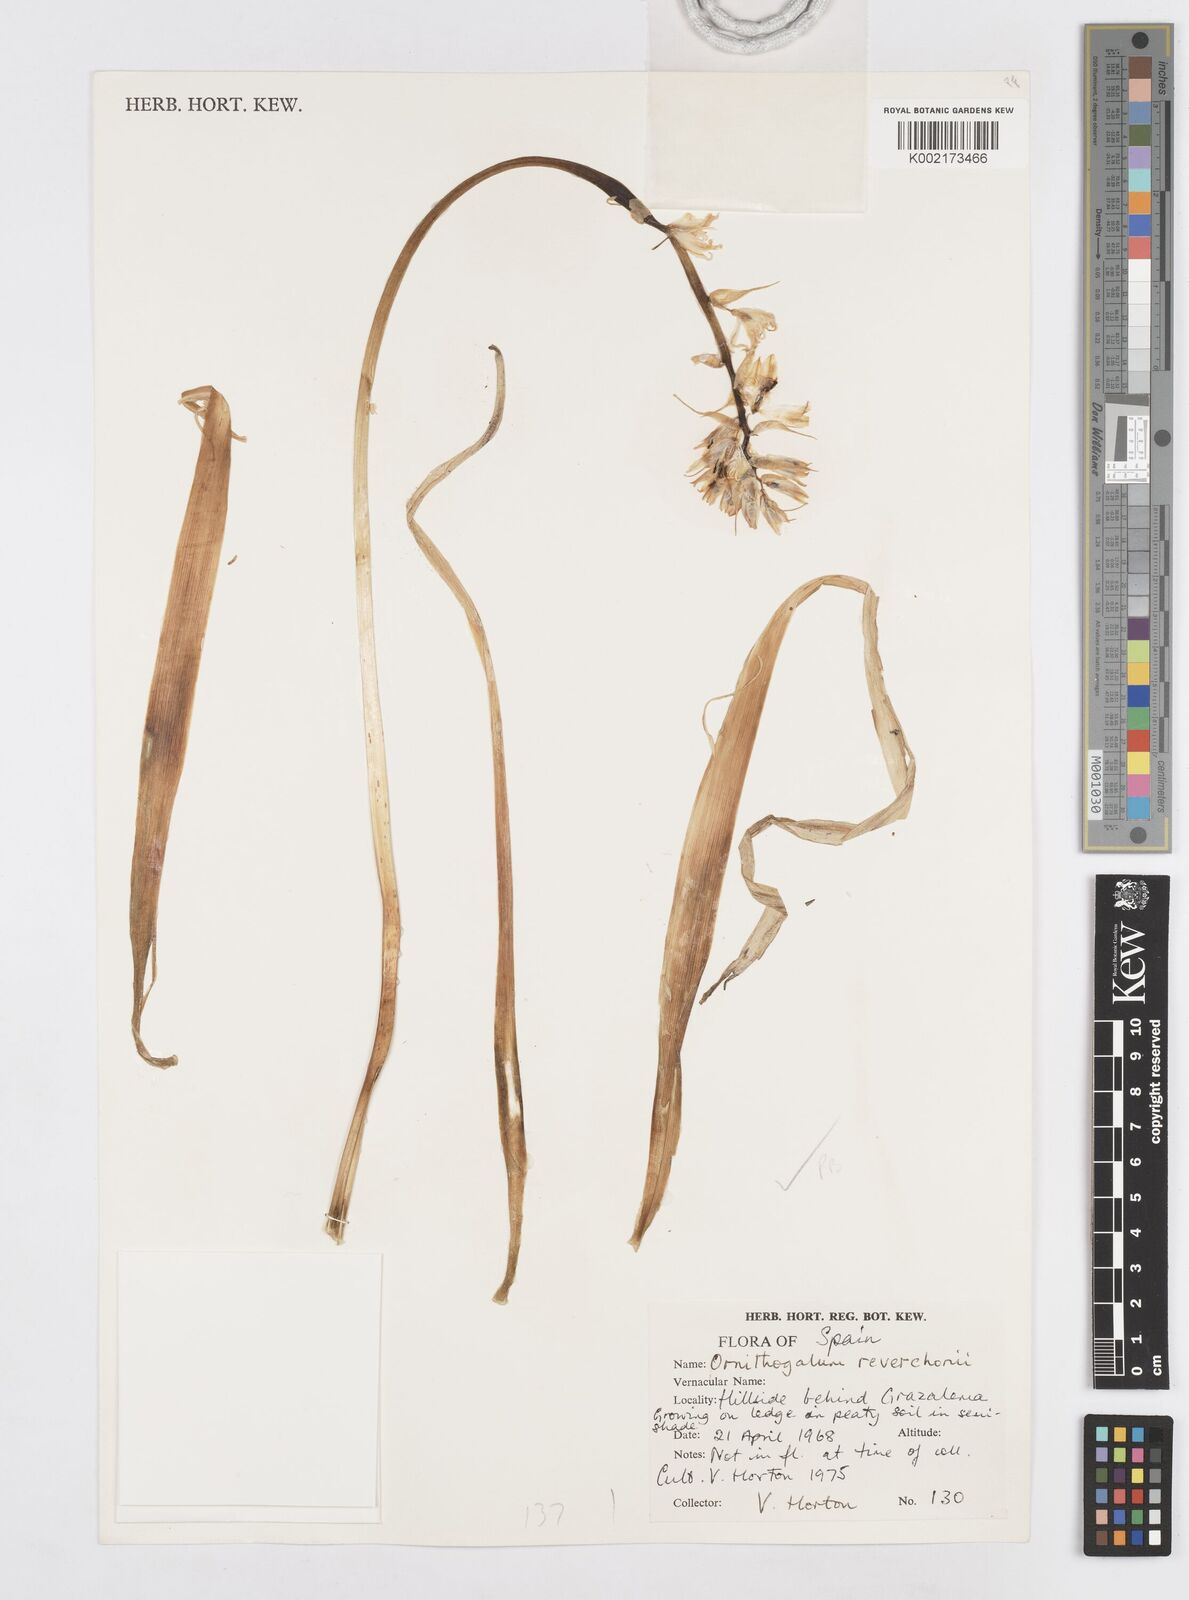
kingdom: Plantae
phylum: Tracheophyta
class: Liliopsida
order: Asparagales
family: Asparagaceae
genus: Ornithogalum
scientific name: Ornithogalum reverchonii
